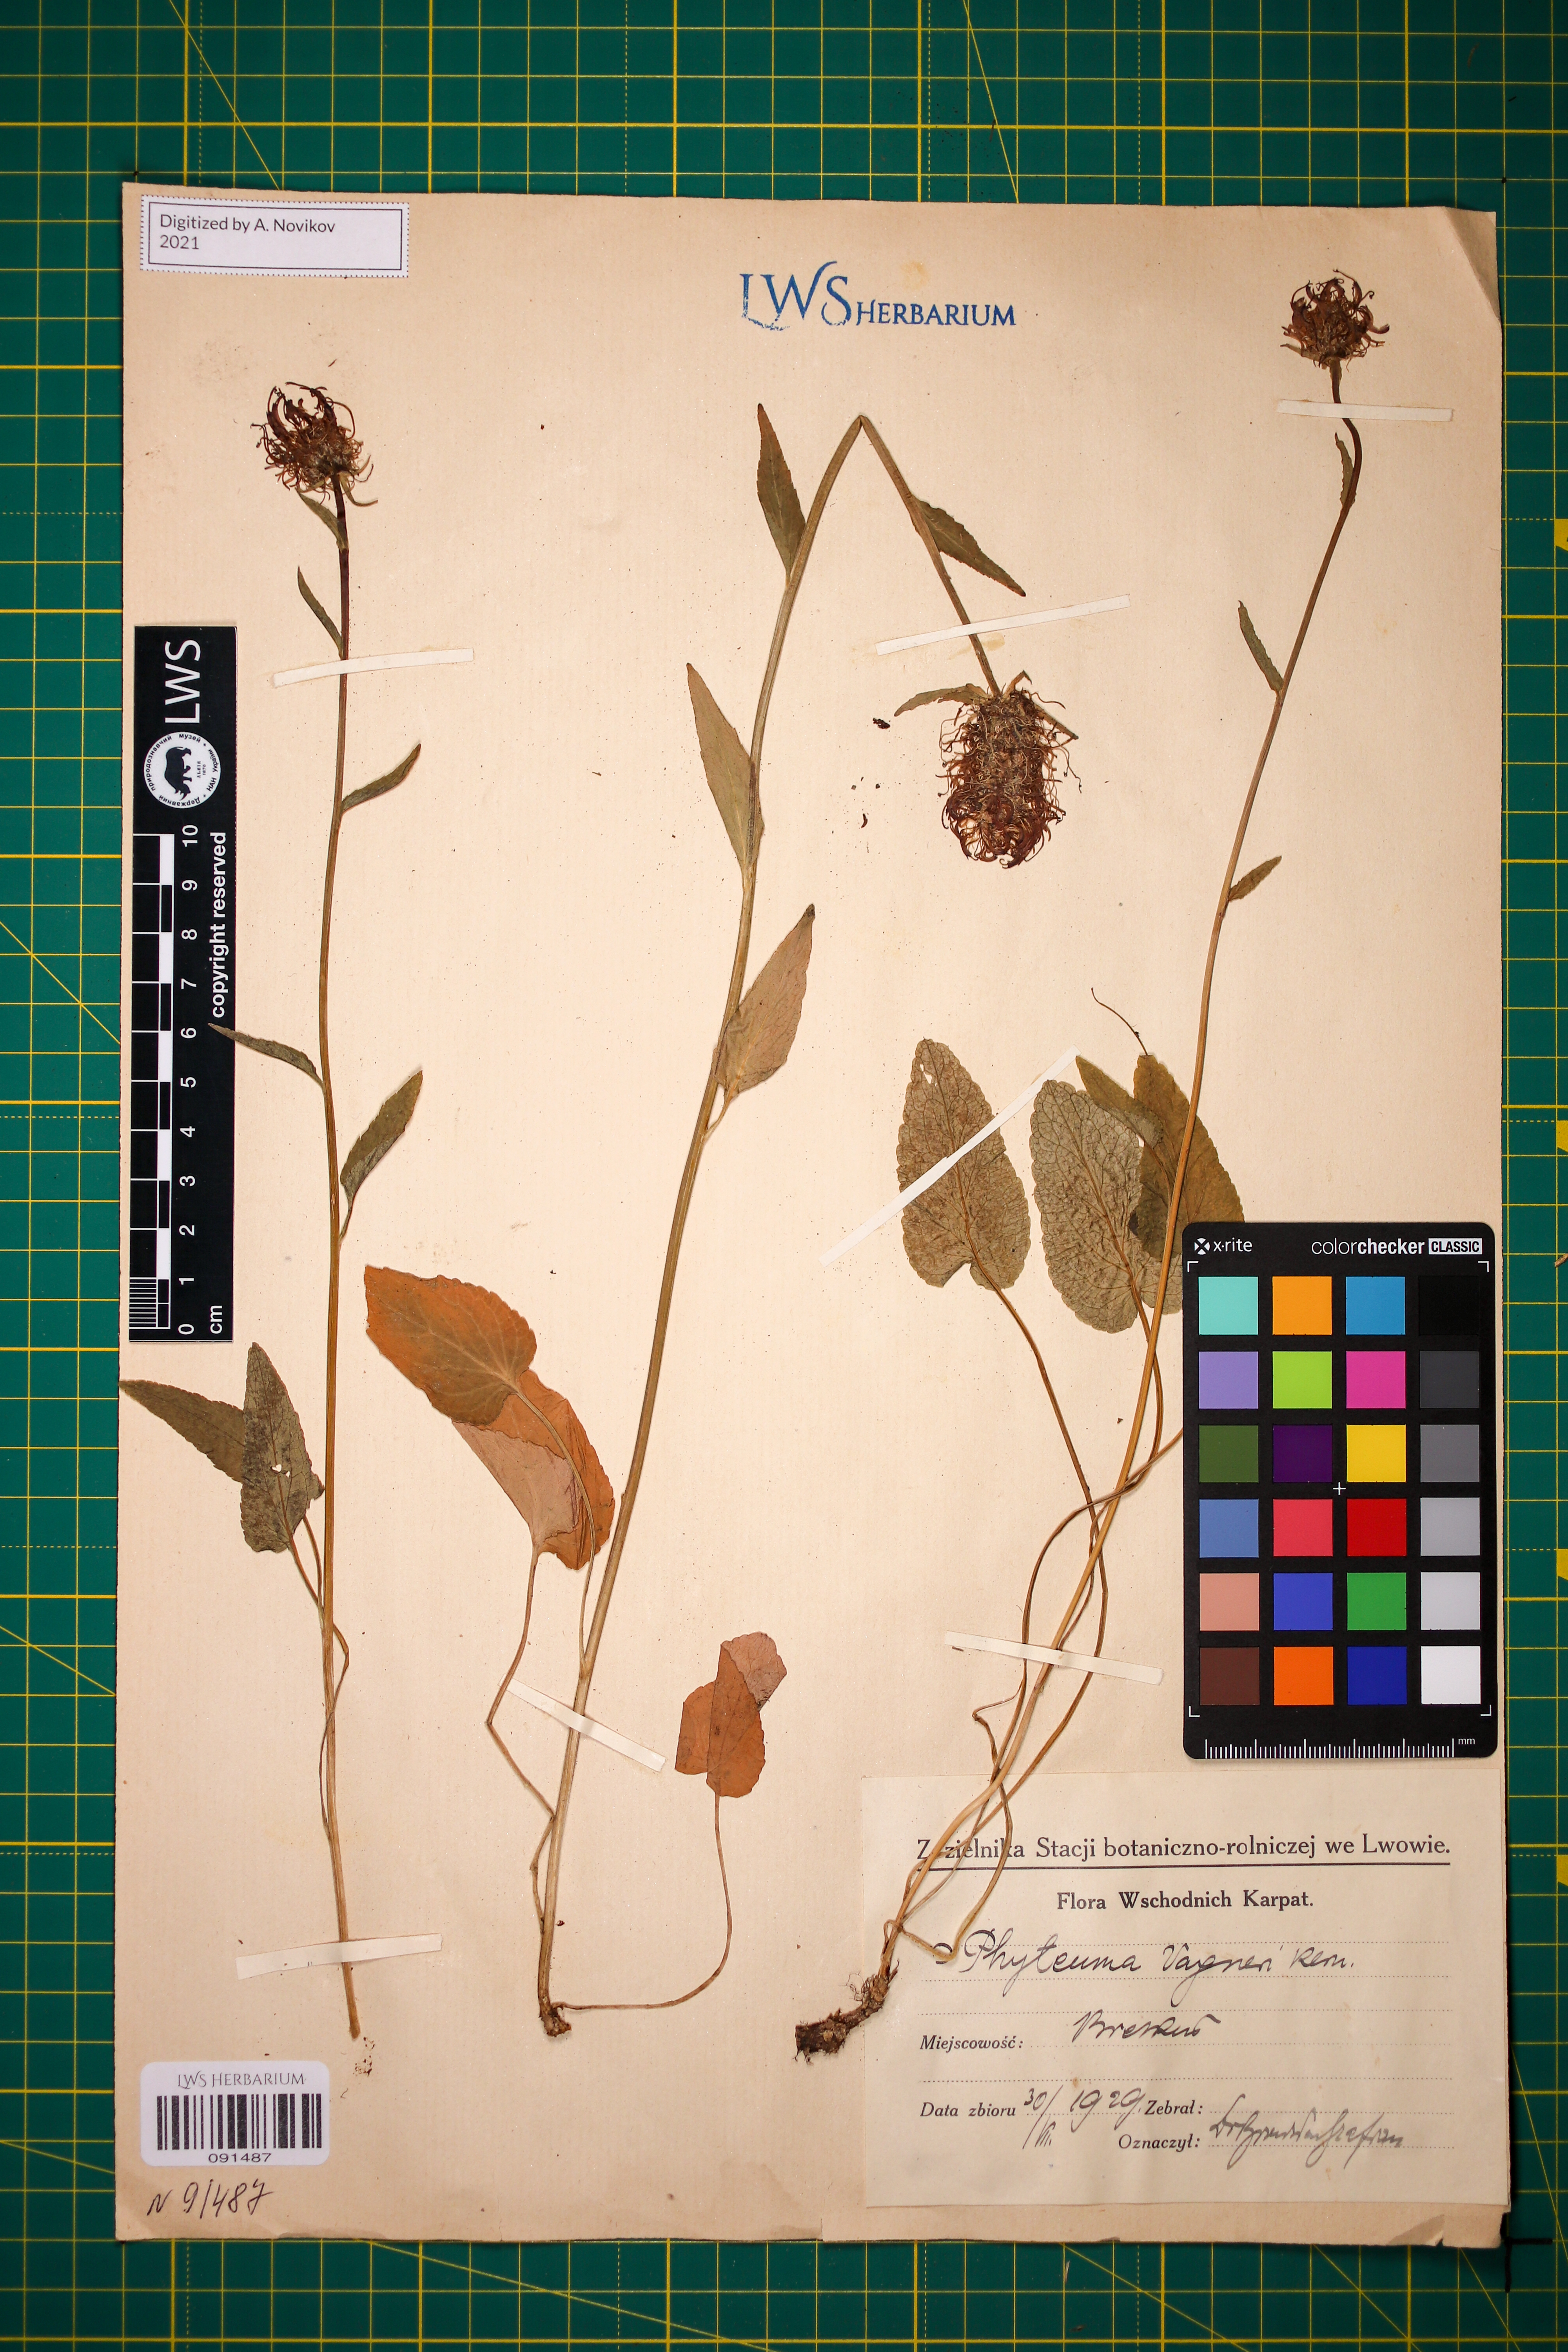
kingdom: Plantae
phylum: Tracheophyta
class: Magnoliopsida
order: Asterales
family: Campanulaceae
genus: Phyteuma
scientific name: Phyteuma vagneri
